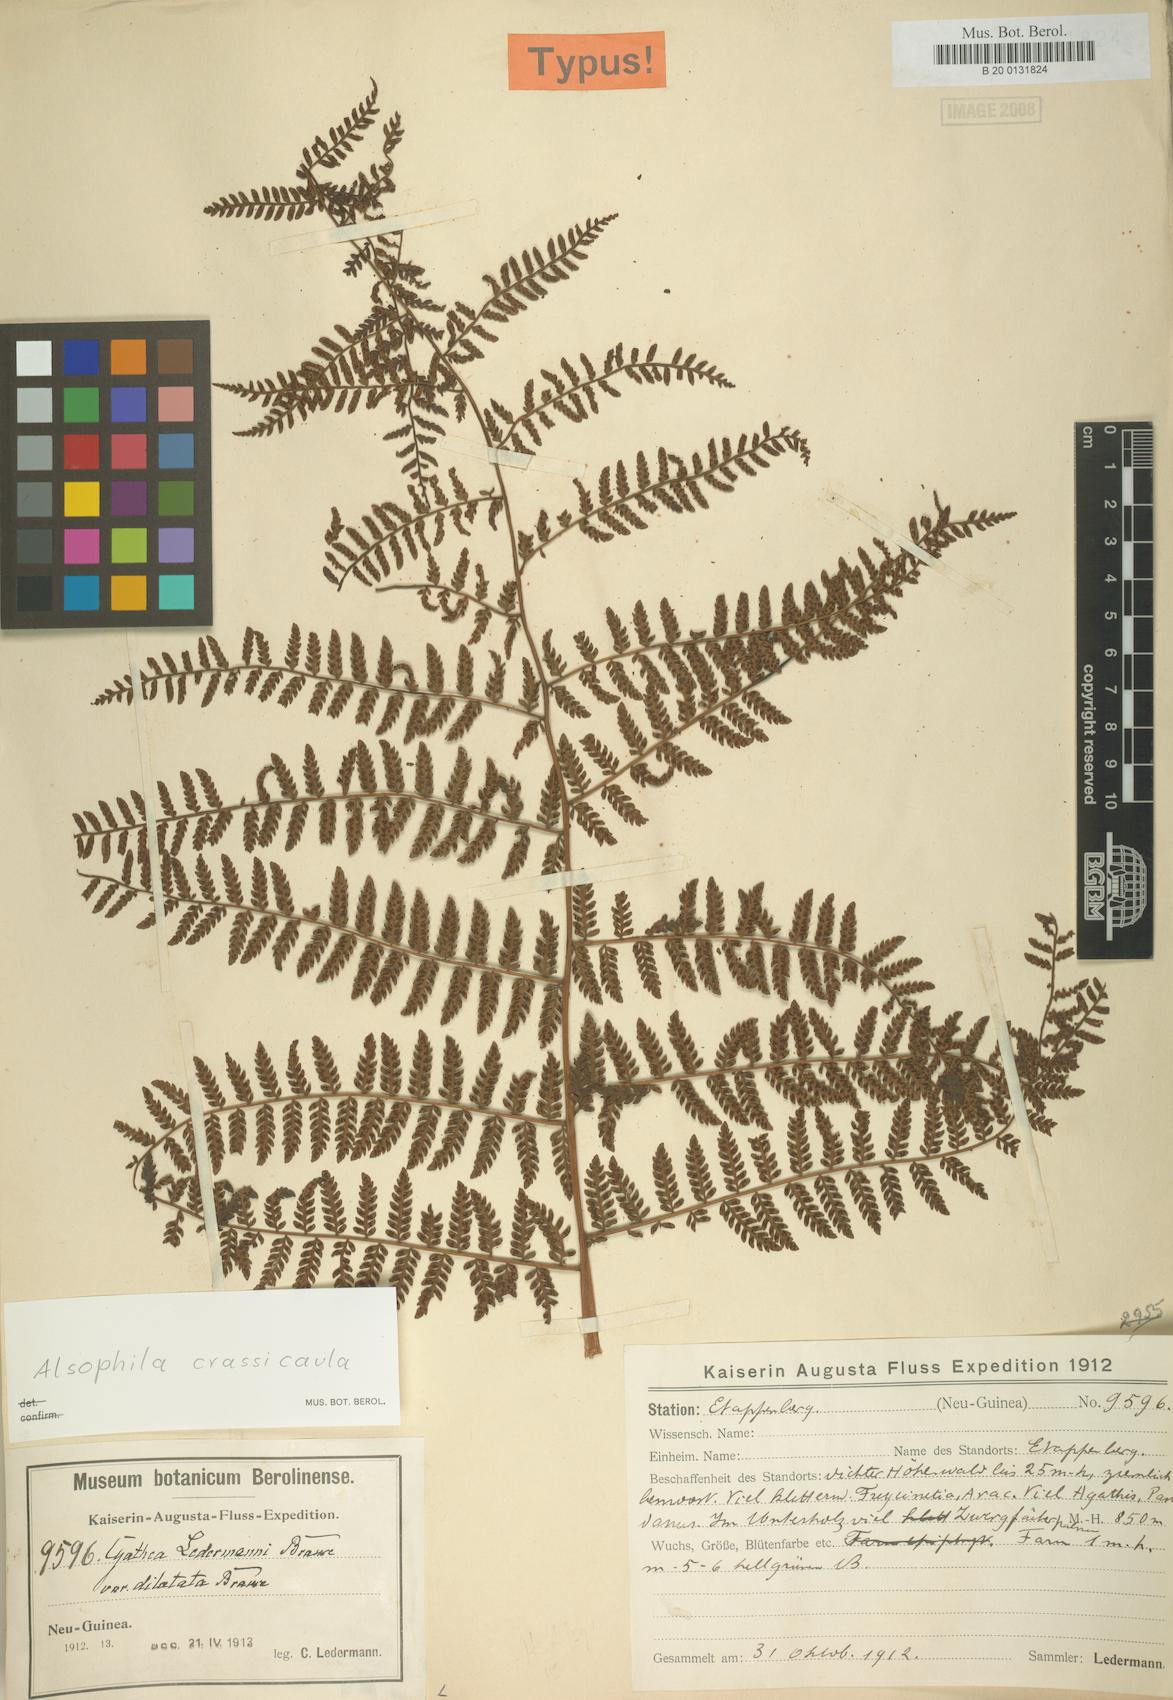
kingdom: Plantae
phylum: Tracheophyta
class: Polypodiopsida
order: Cyatheales
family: Cyatheaceae
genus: Sphaeropteris
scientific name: Sphaeropteris ledermannii
